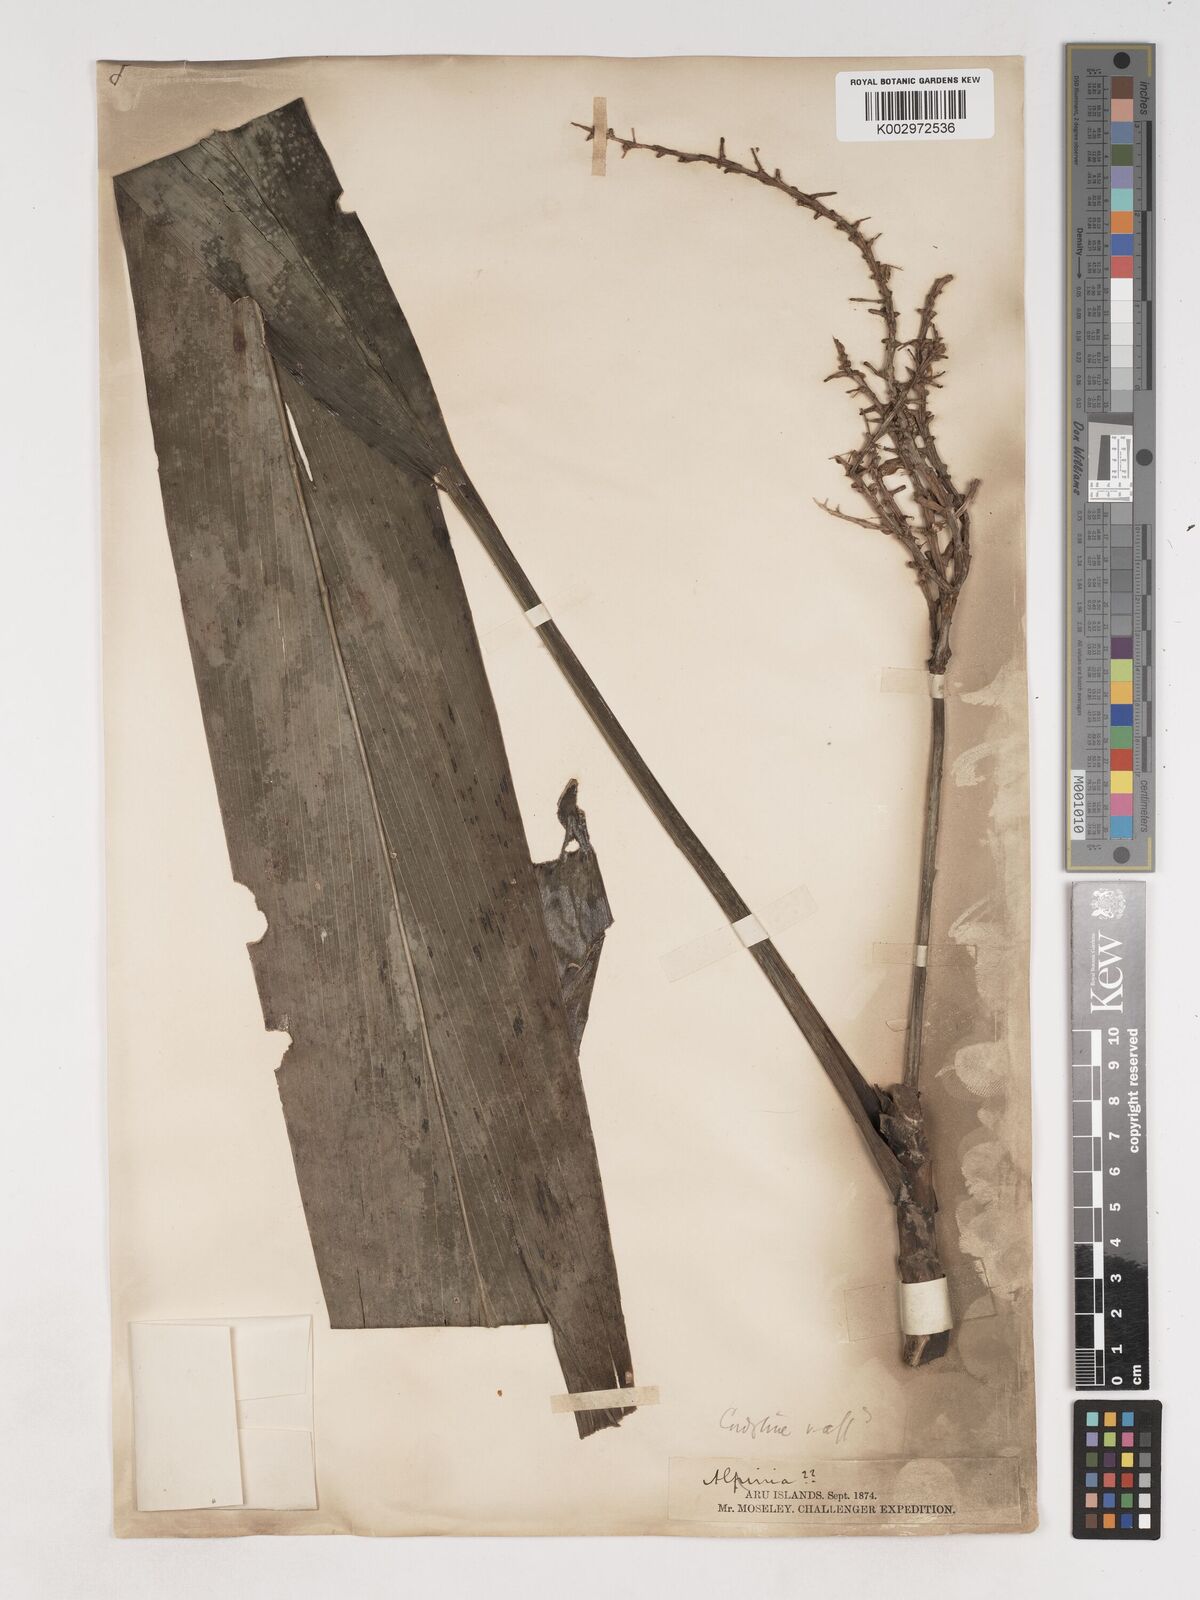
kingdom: Plantae
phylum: Tracheophyta
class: Liliopsida
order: Asparagales
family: Asparagaceae
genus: Cordyline
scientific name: Cordyline
